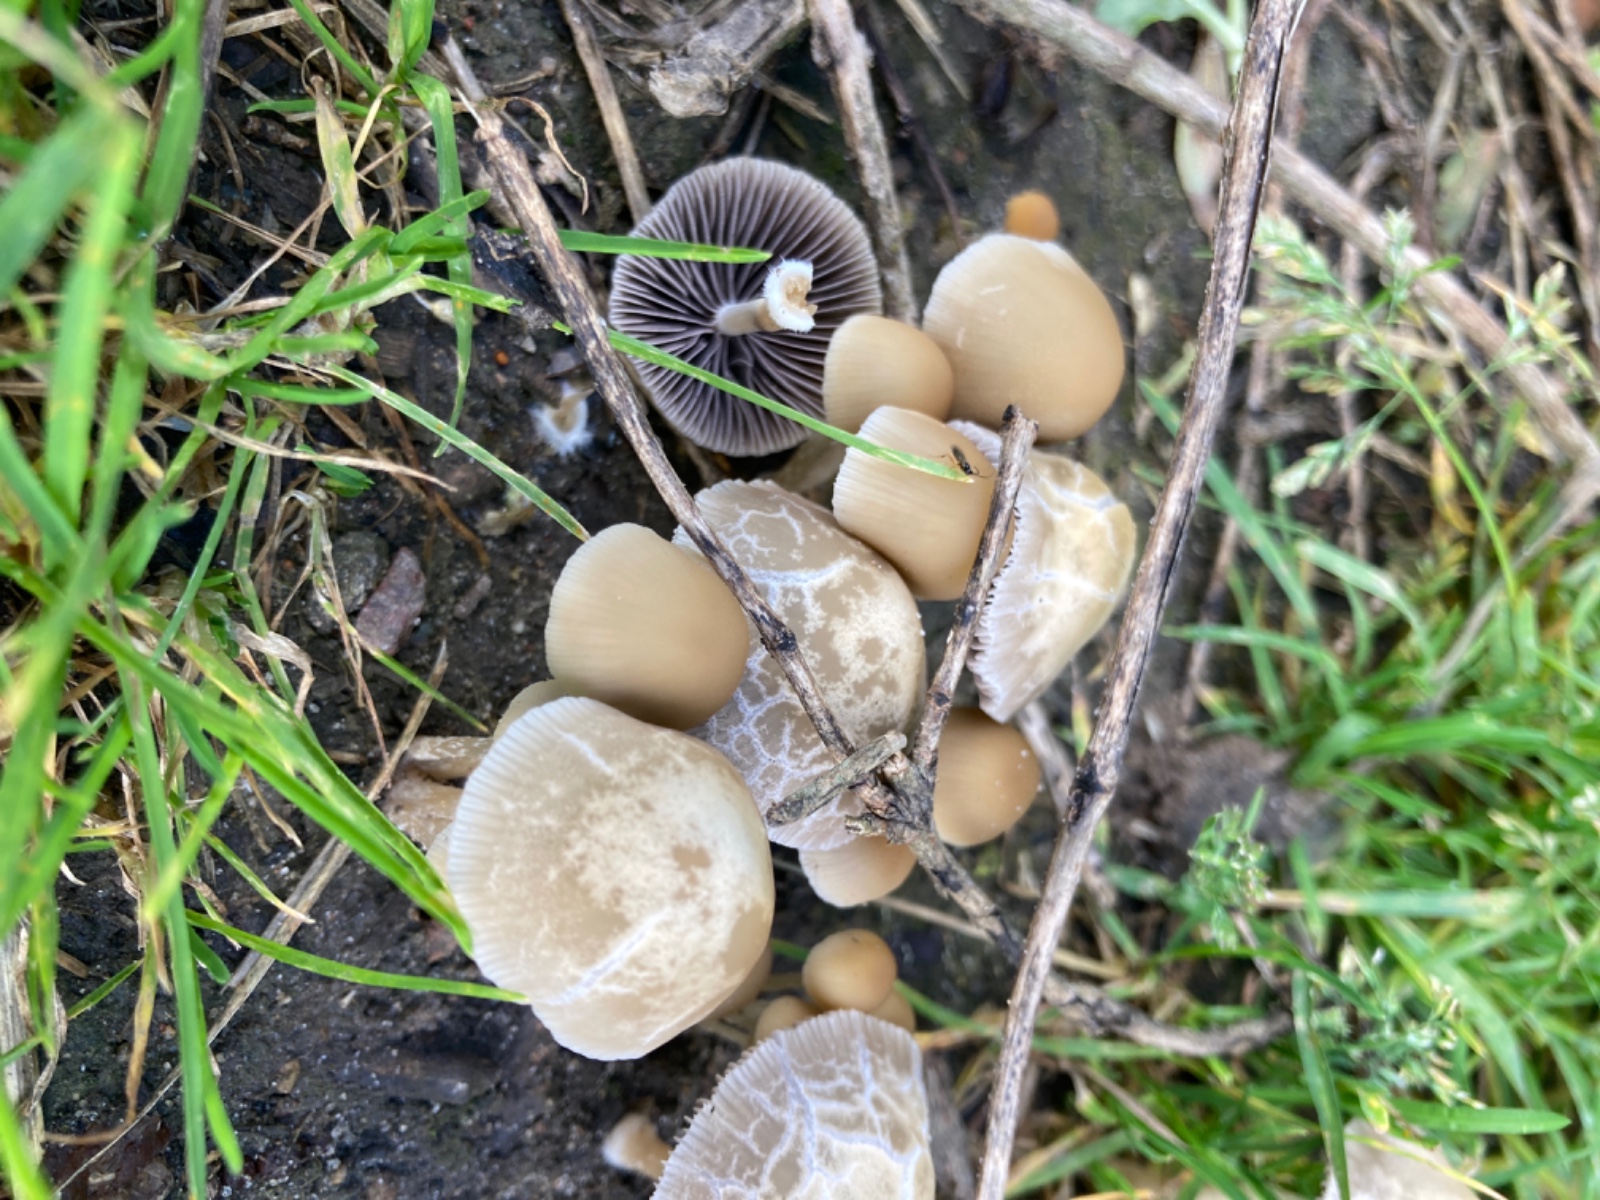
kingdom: Fungi
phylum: Basidiomycota
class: Agaricomycetes
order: Agaricales
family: Psathyrellaceae
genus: Psathyrella
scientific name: Psathyrella
